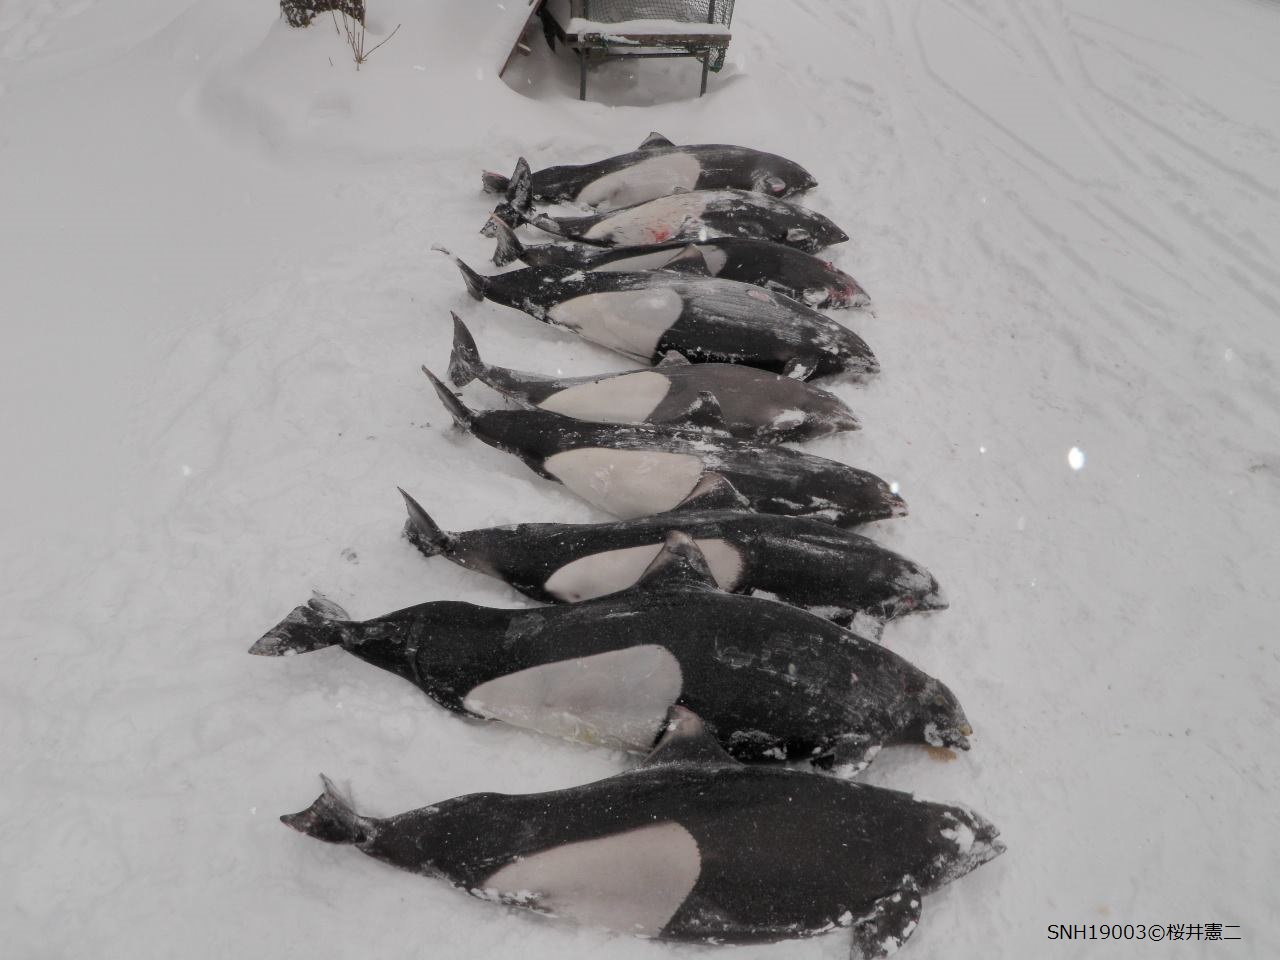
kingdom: Animalia
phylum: Chordata
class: Mammalia
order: Cetacea
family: Phocoenidae
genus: Phocoenoides
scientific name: Phocoenoides dalli
